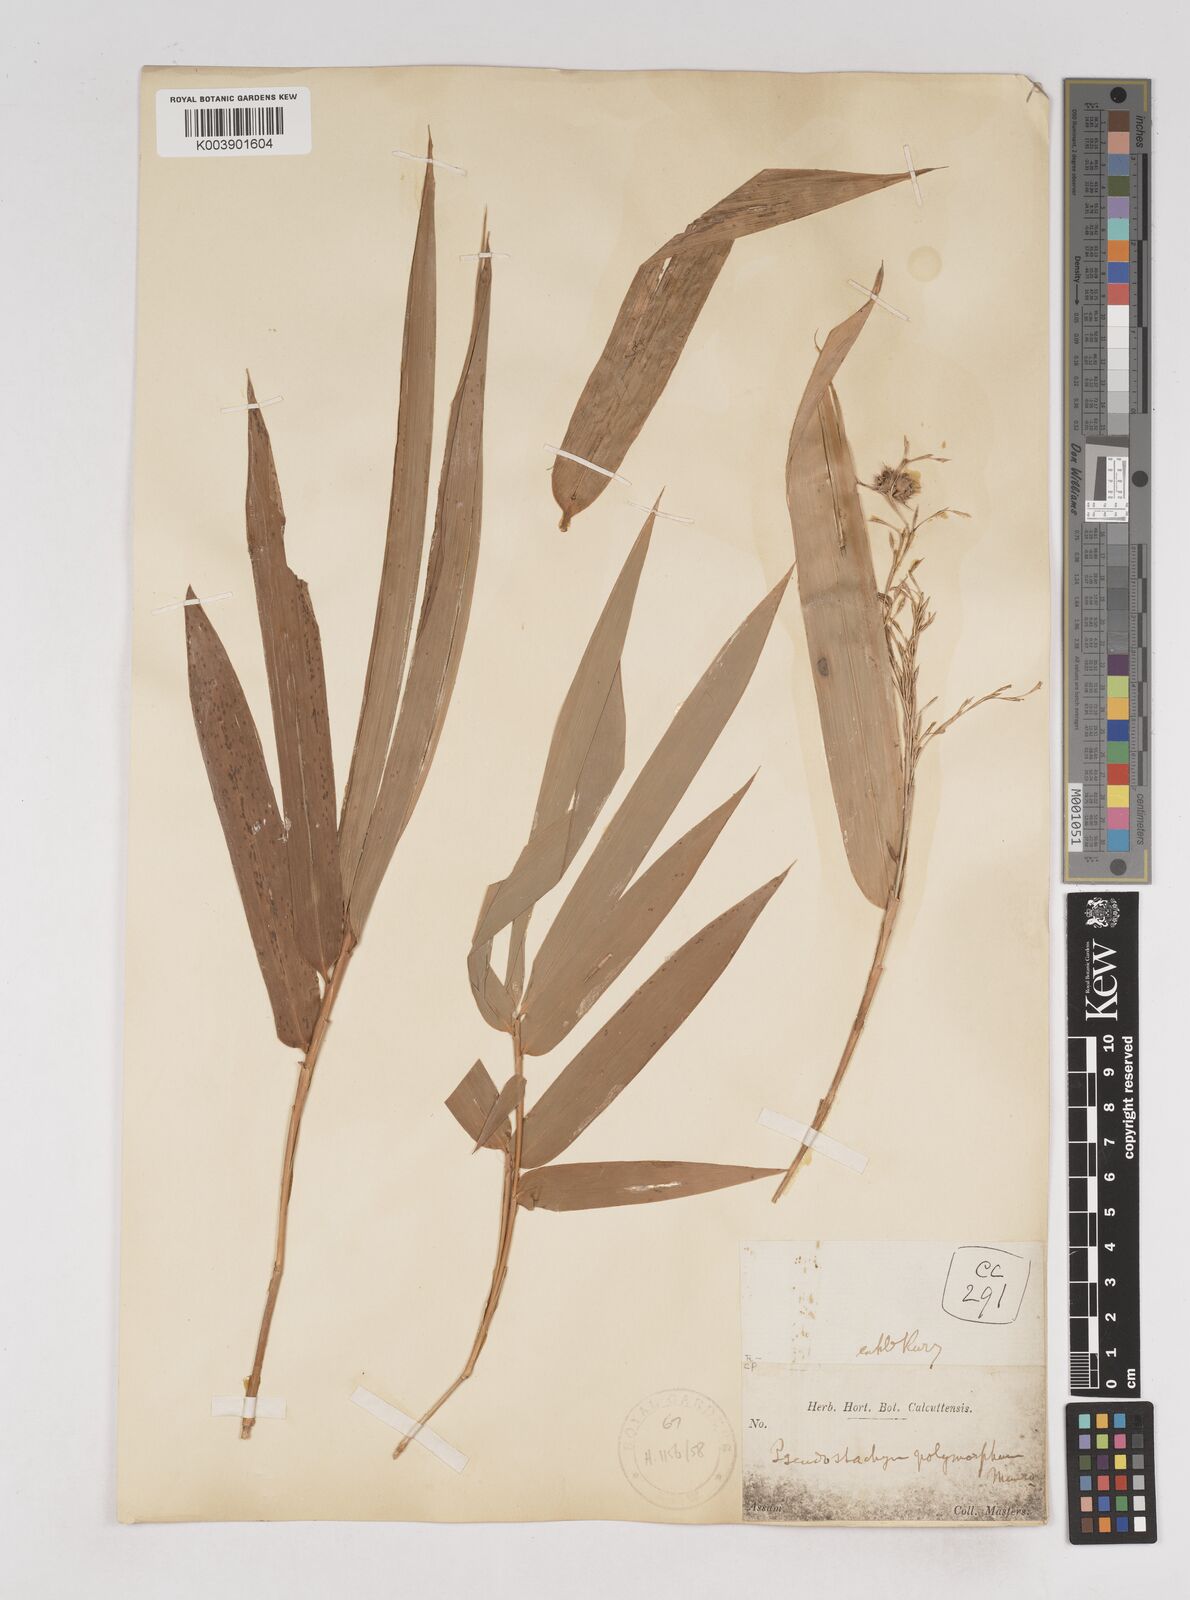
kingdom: Plantae
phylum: Tracheophyta
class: Liliopsida
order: Poales
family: Poaceae
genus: Pseudostachyum
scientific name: Pseudostachyum polymorphum
